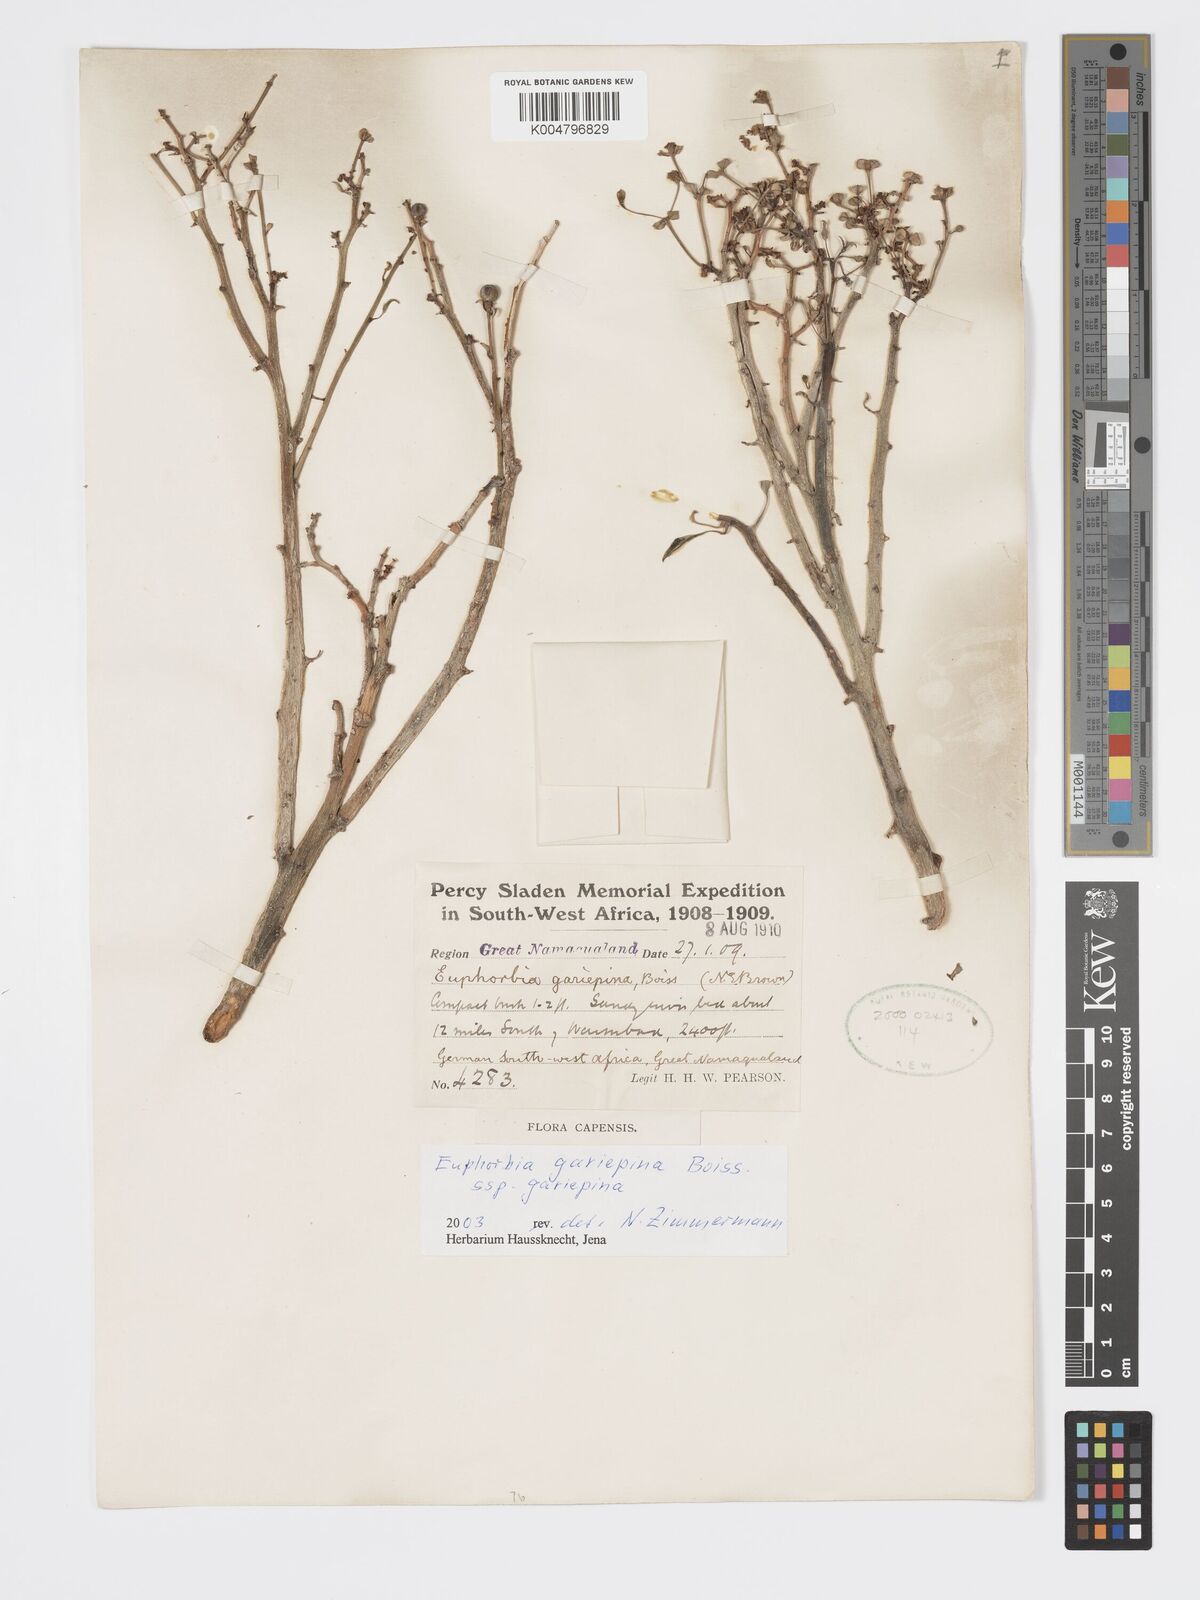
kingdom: Plantae
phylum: Tracheophyta
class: Magnoliopsida
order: Malpighiales
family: Euphorbiaceae
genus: Euphorbia
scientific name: Euphorbia gariepina
